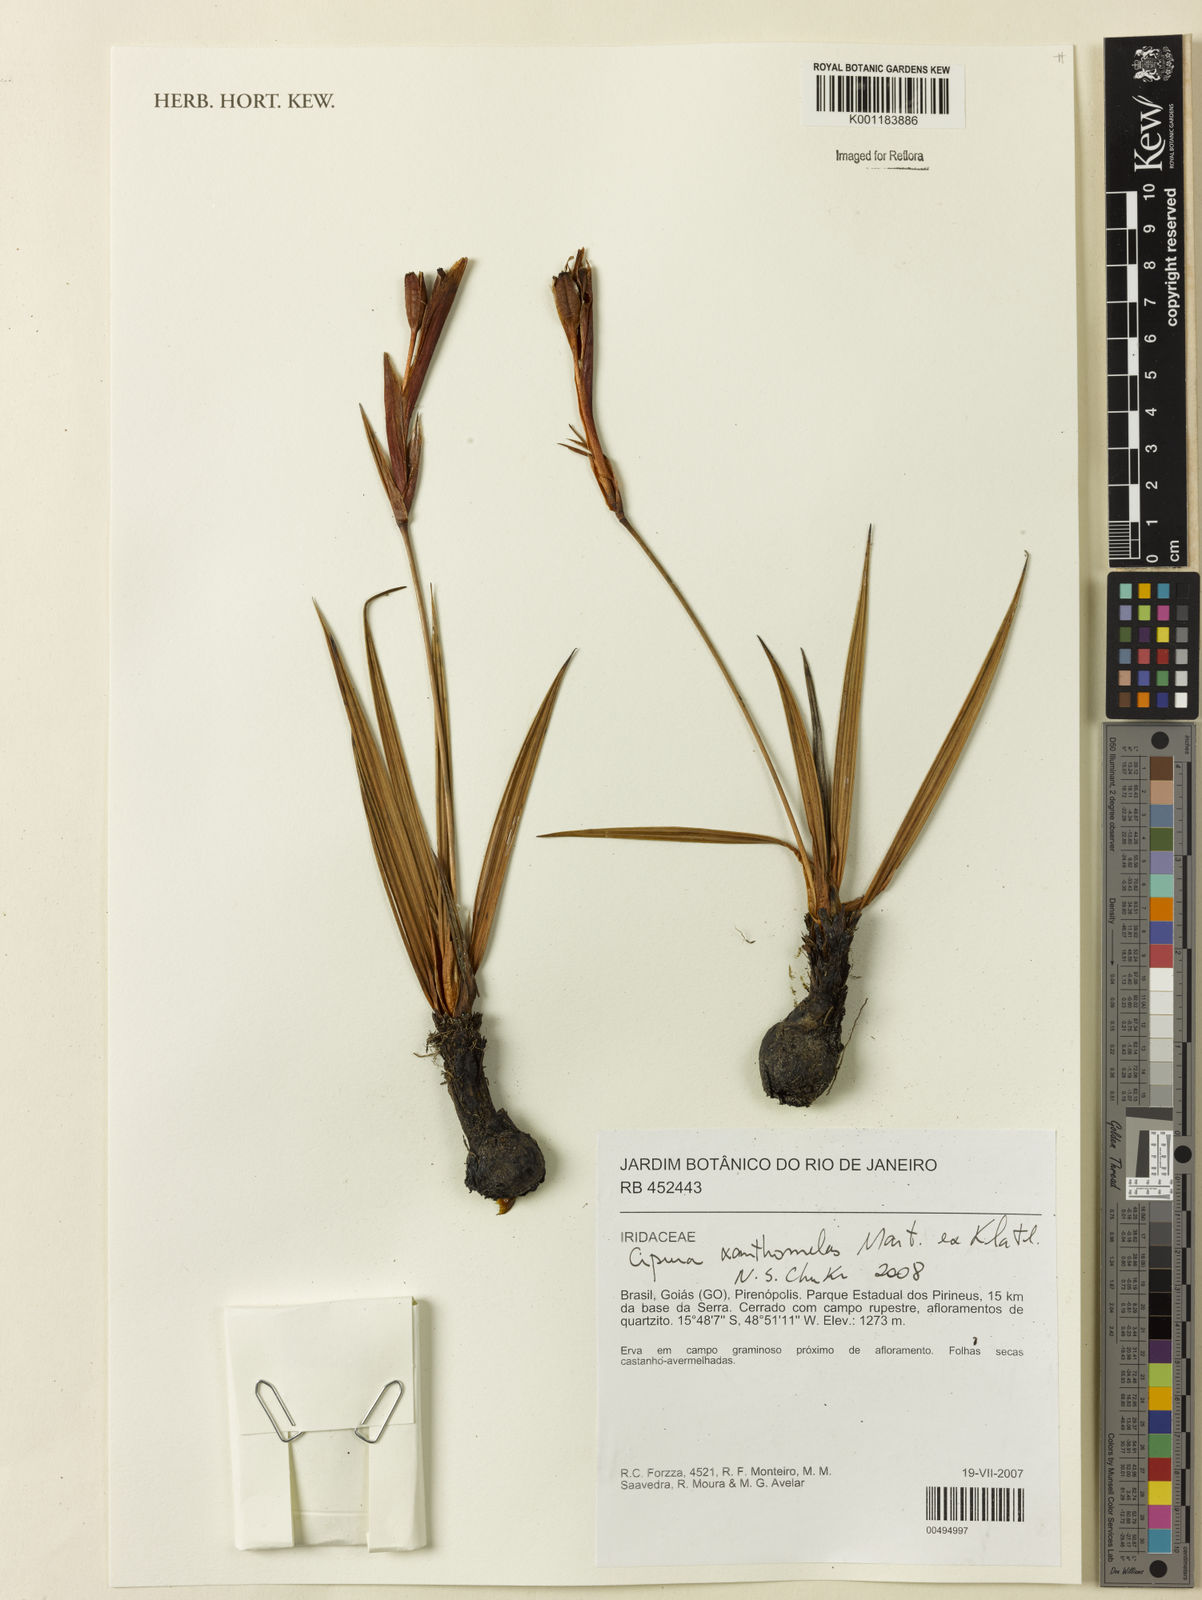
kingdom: Plantae
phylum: Tracheophyta
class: Liliopsida
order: Asparagales
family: Iridaceae
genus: Cipura
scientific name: Cipura xanthomelas
